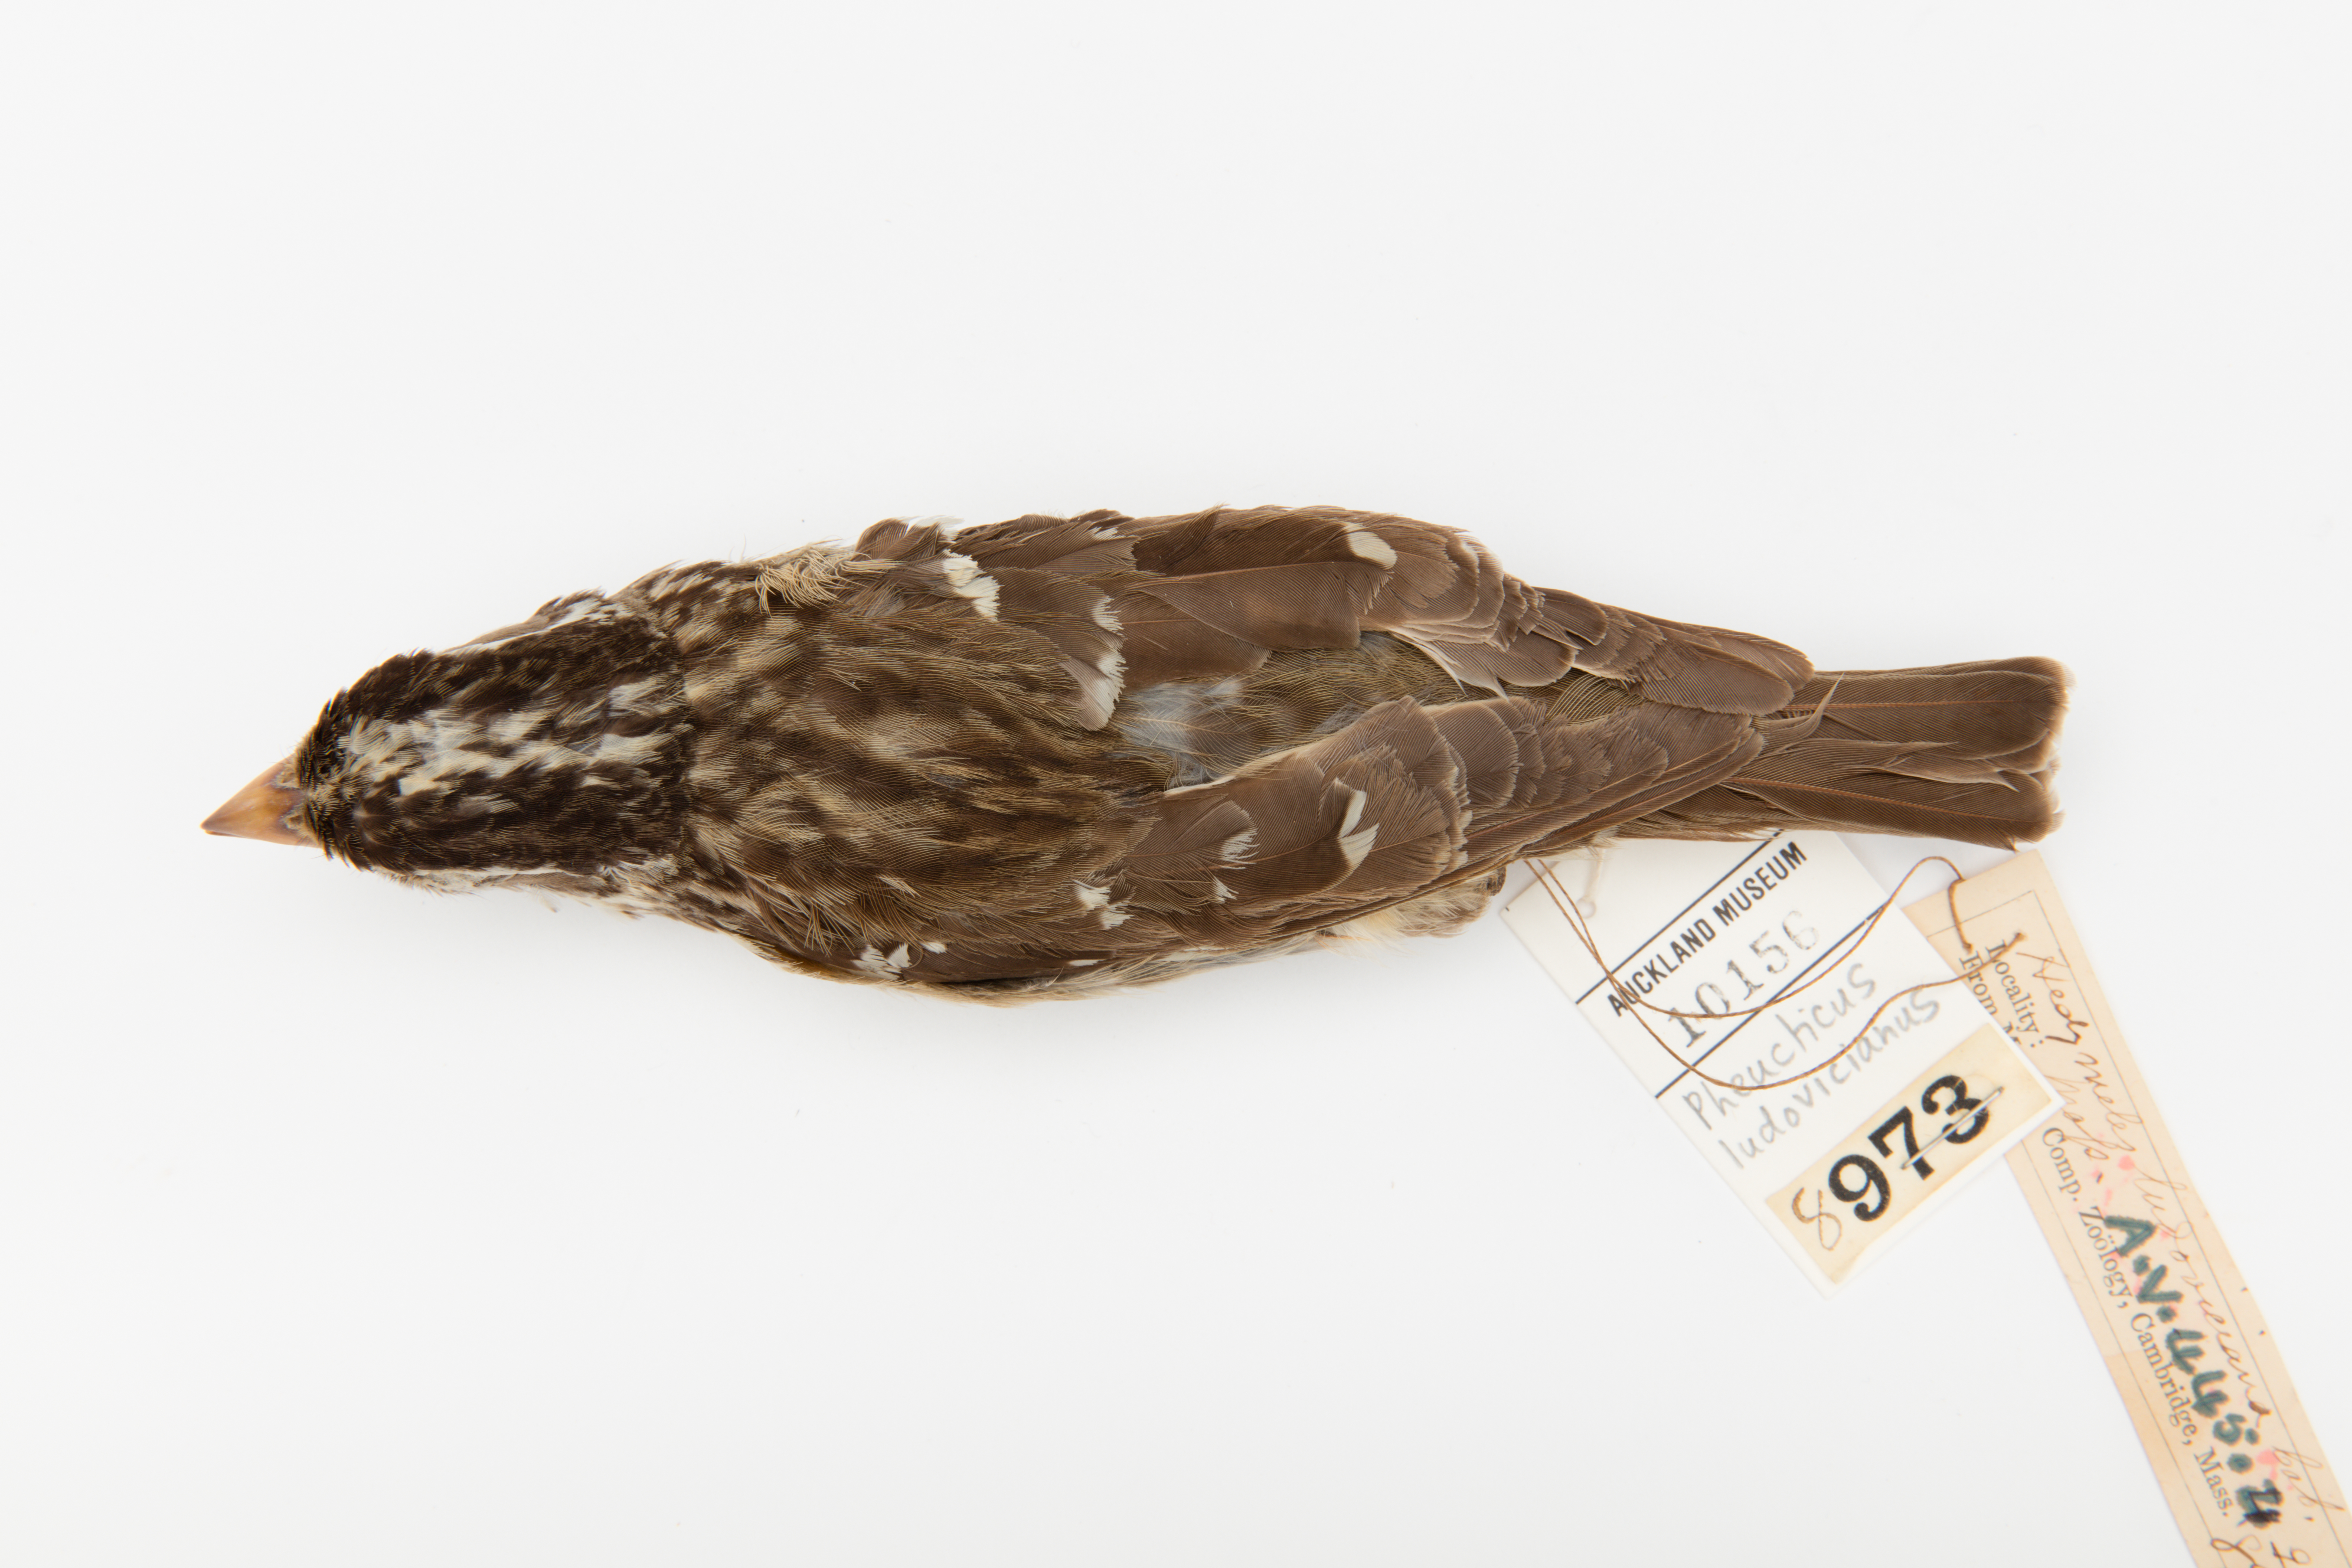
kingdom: Animalia
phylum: Chordata
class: Aves
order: Passeriformes
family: Cardinalidae
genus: Pheucticus
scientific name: Pheucticus ludovicianus
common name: Rose-breasted grosbeak
